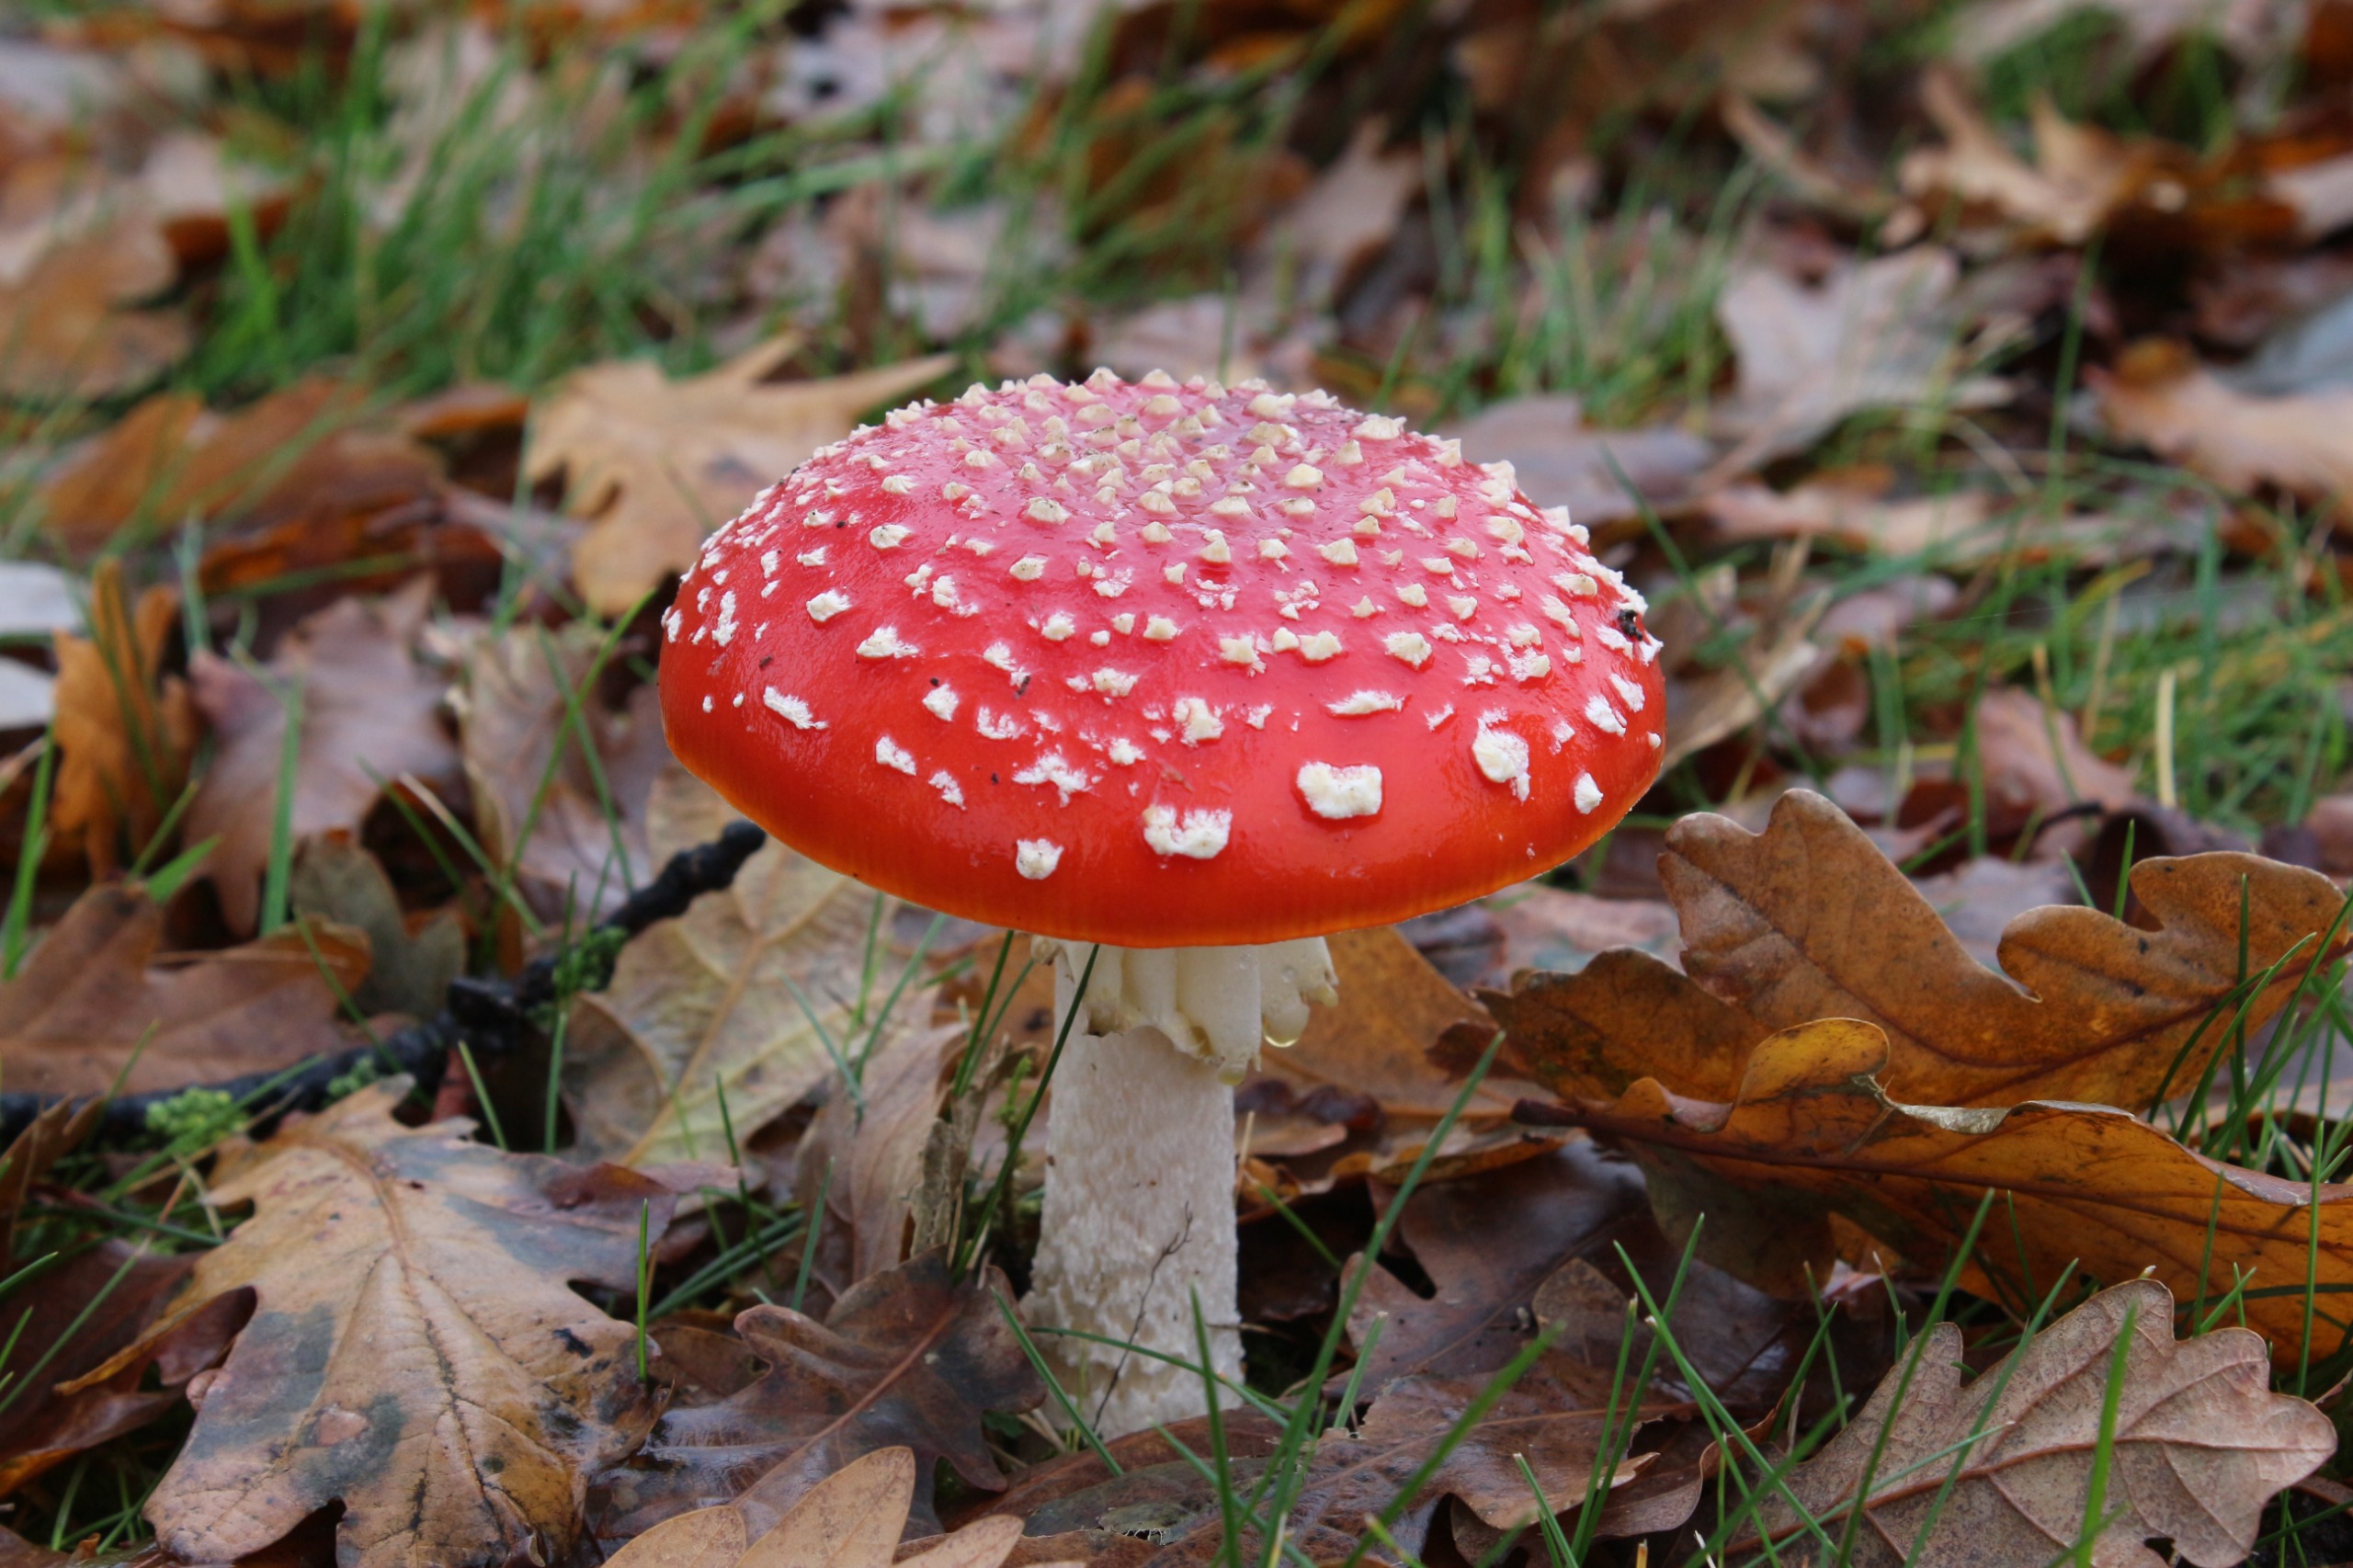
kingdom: Fungi
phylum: Basidiomycota
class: Agaricomycetes
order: Agaricales
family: Amanitaceae
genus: Amanita
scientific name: Amanita muscaria
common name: Rød fluesvamp
